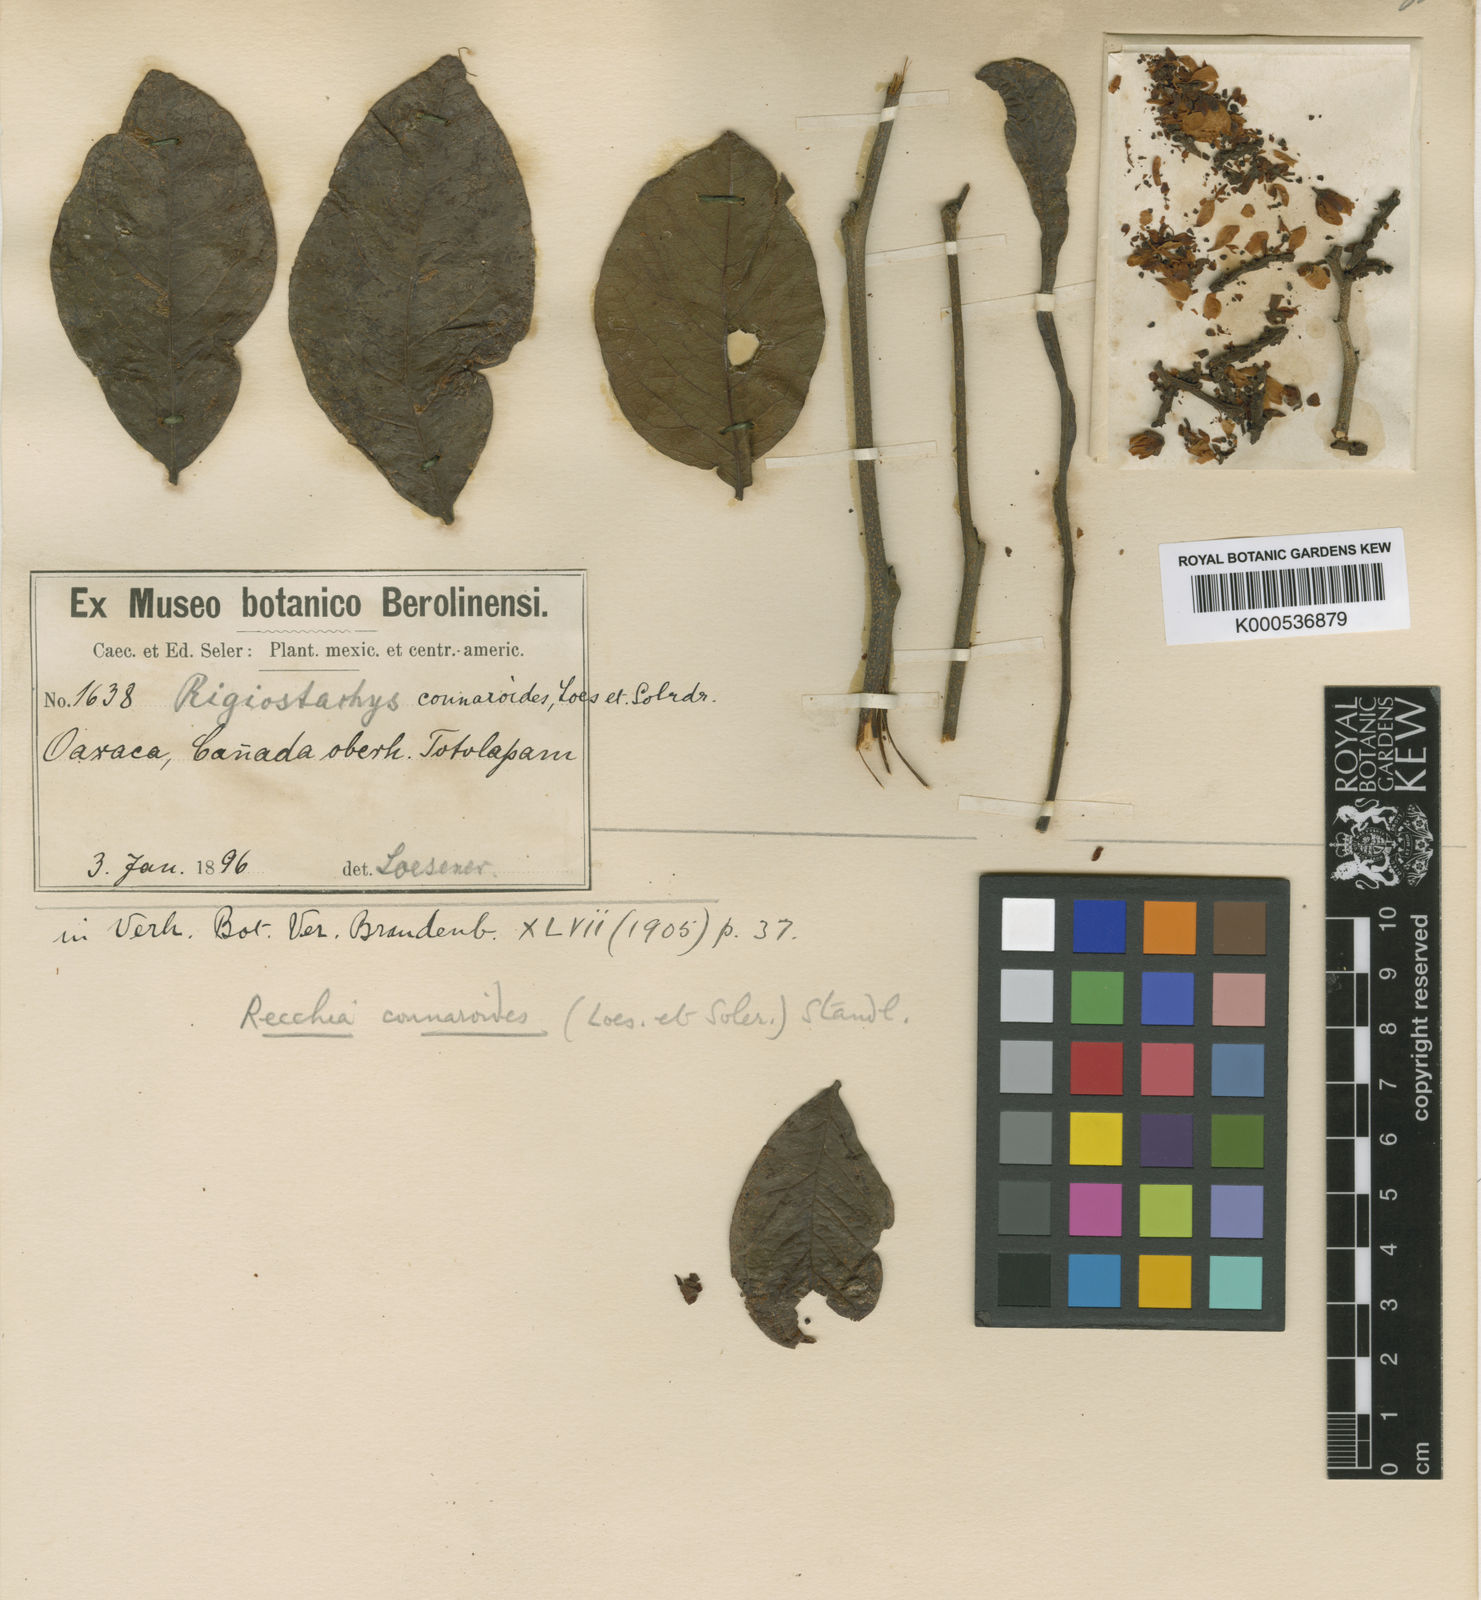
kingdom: Plantae
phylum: Tracheophyta
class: Magnoliopsida
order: Fabales
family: Surianaceae
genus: Recchia
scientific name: Recchia connaroides
